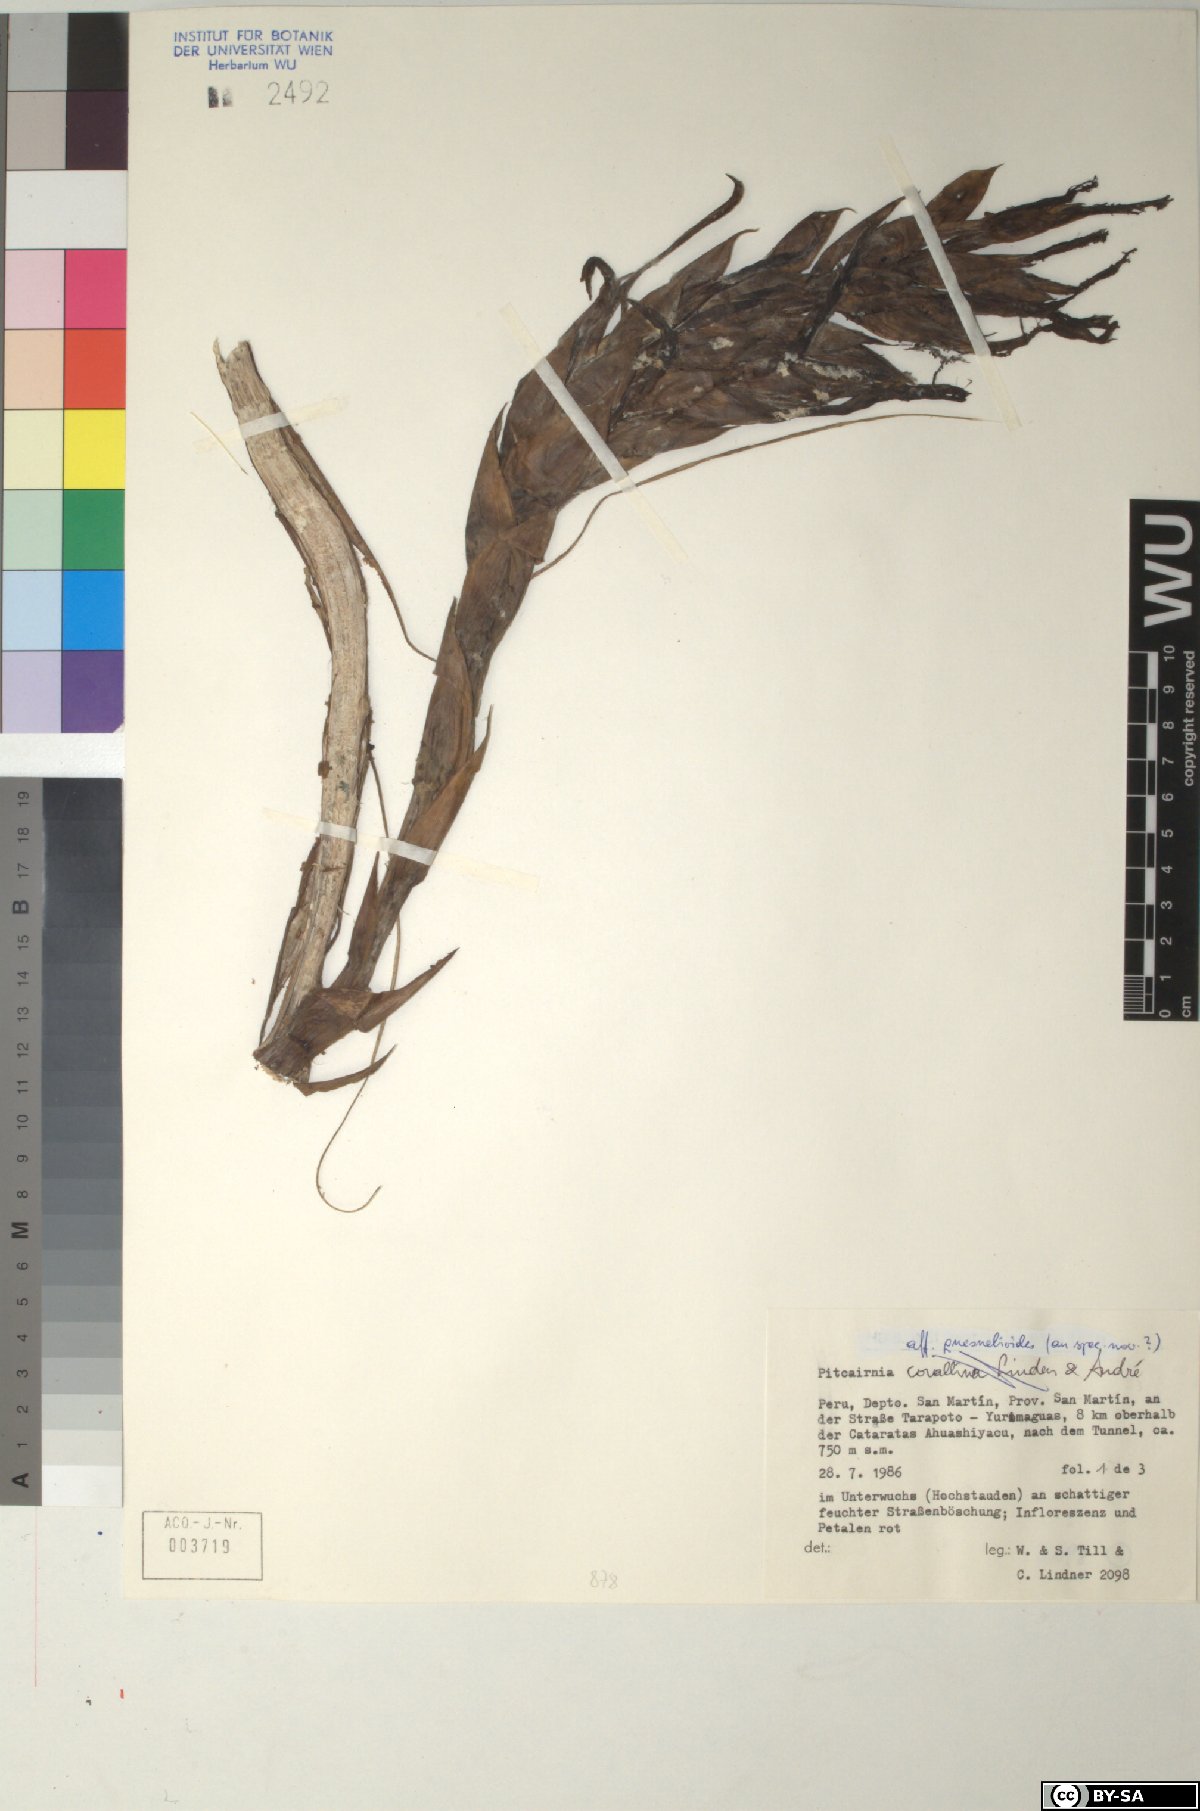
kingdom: Plantae
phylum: Tracheophyta
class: Liliopsida
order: Poales
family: Bromeliaceae
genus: Pitcairnia
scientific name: Pitcairnia corallina
